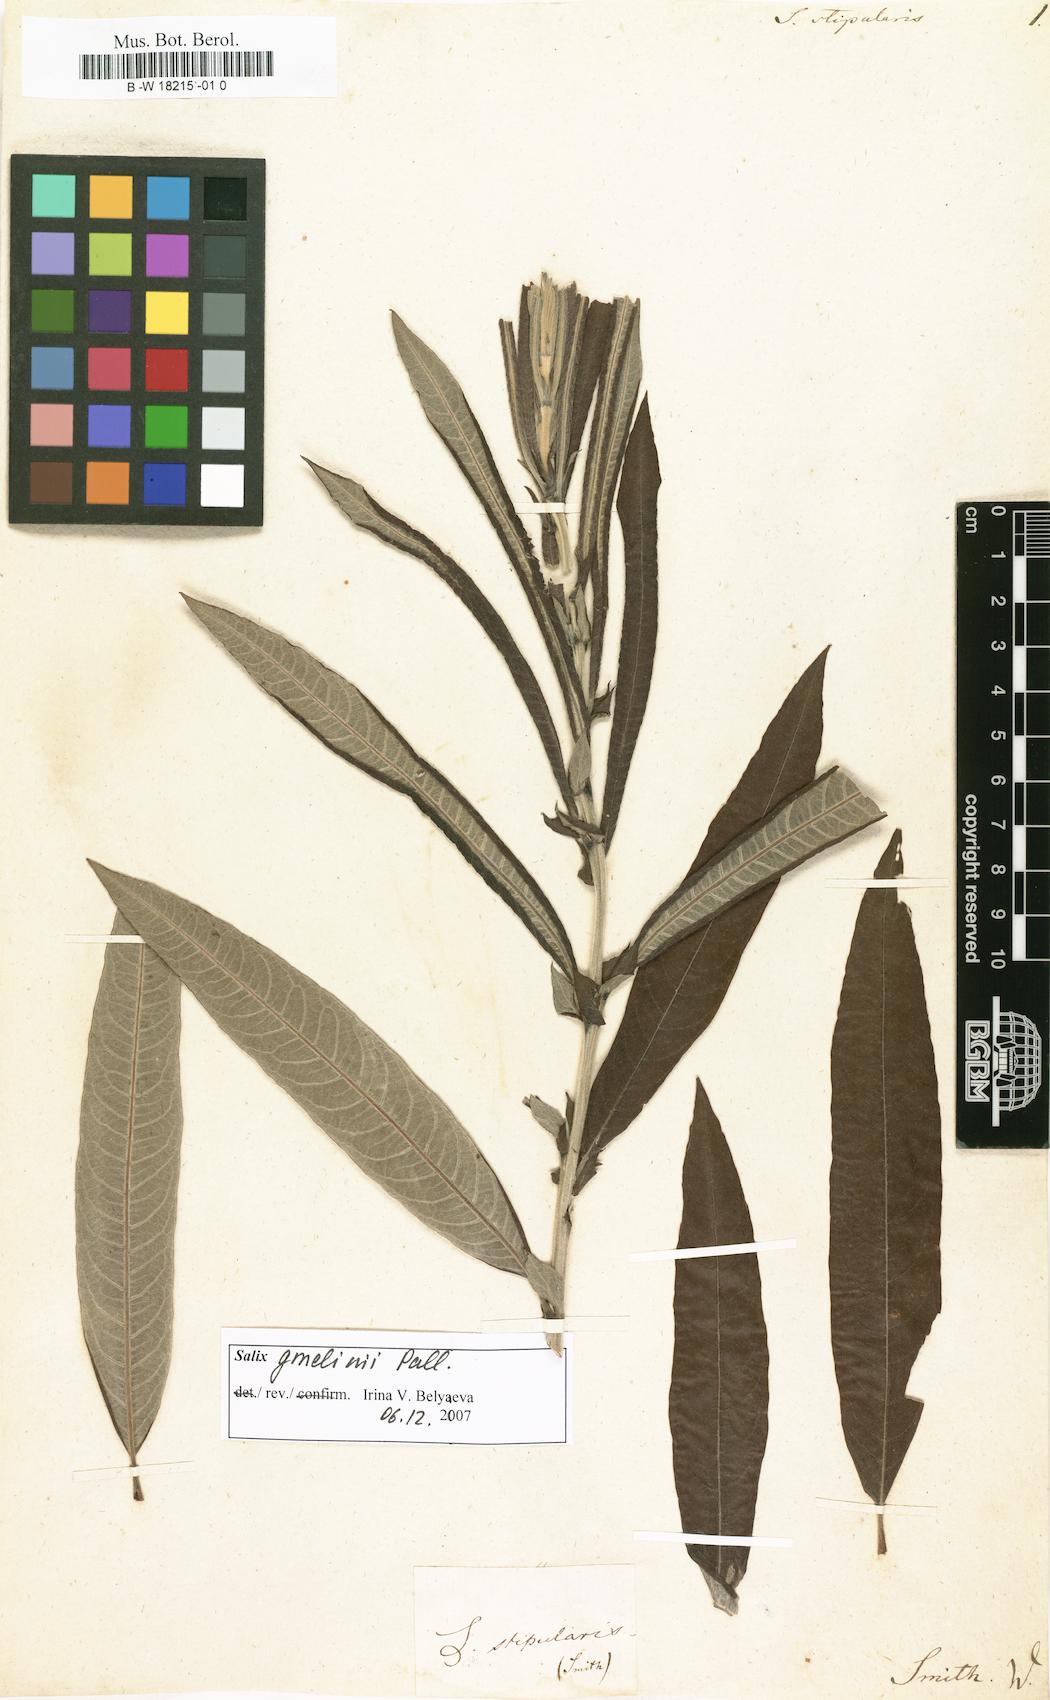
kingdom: Plantae
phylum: Tracheophyta
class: Magnoliopsida
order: Malpighiales
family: Salicaceae
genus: Salix
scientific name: Salix stipularis
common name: Eared osier
